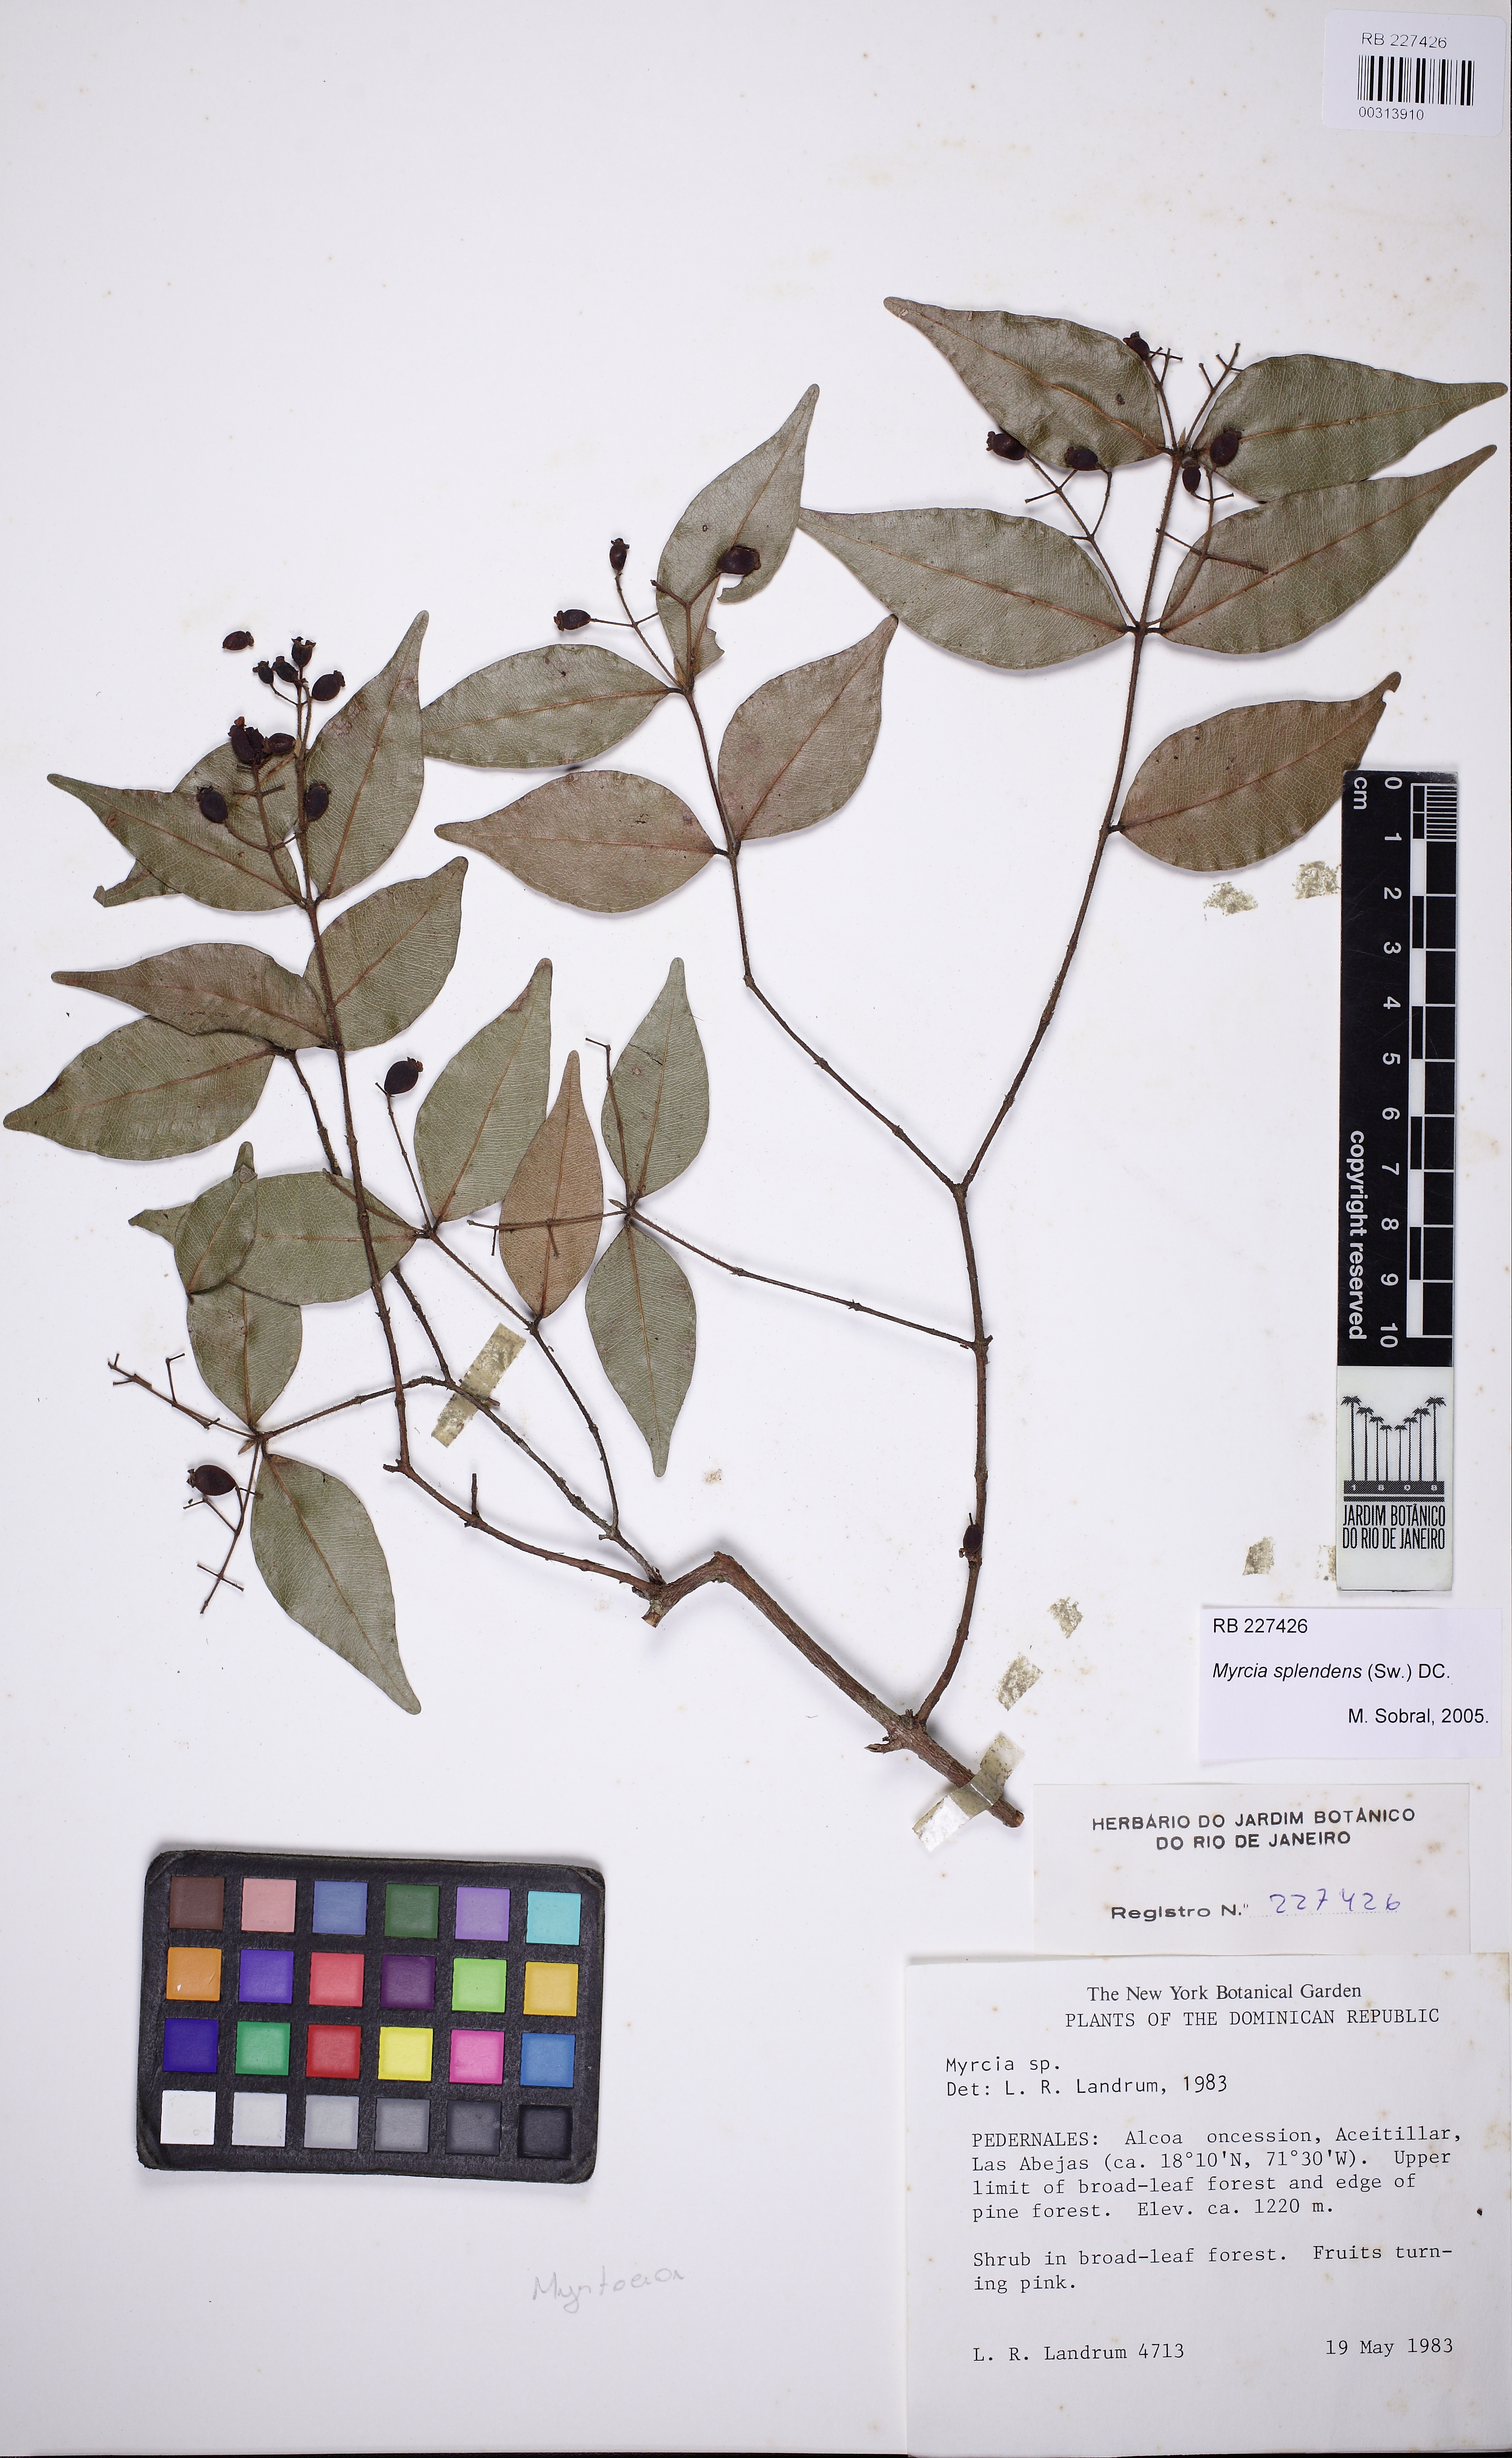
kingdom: Plantae
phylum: Tracheophyta
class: Magnoliopsida
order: Myrtales
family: Myrtaceae
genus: Myrcia
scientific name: Myrcia splendens
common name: Surinam cherry
